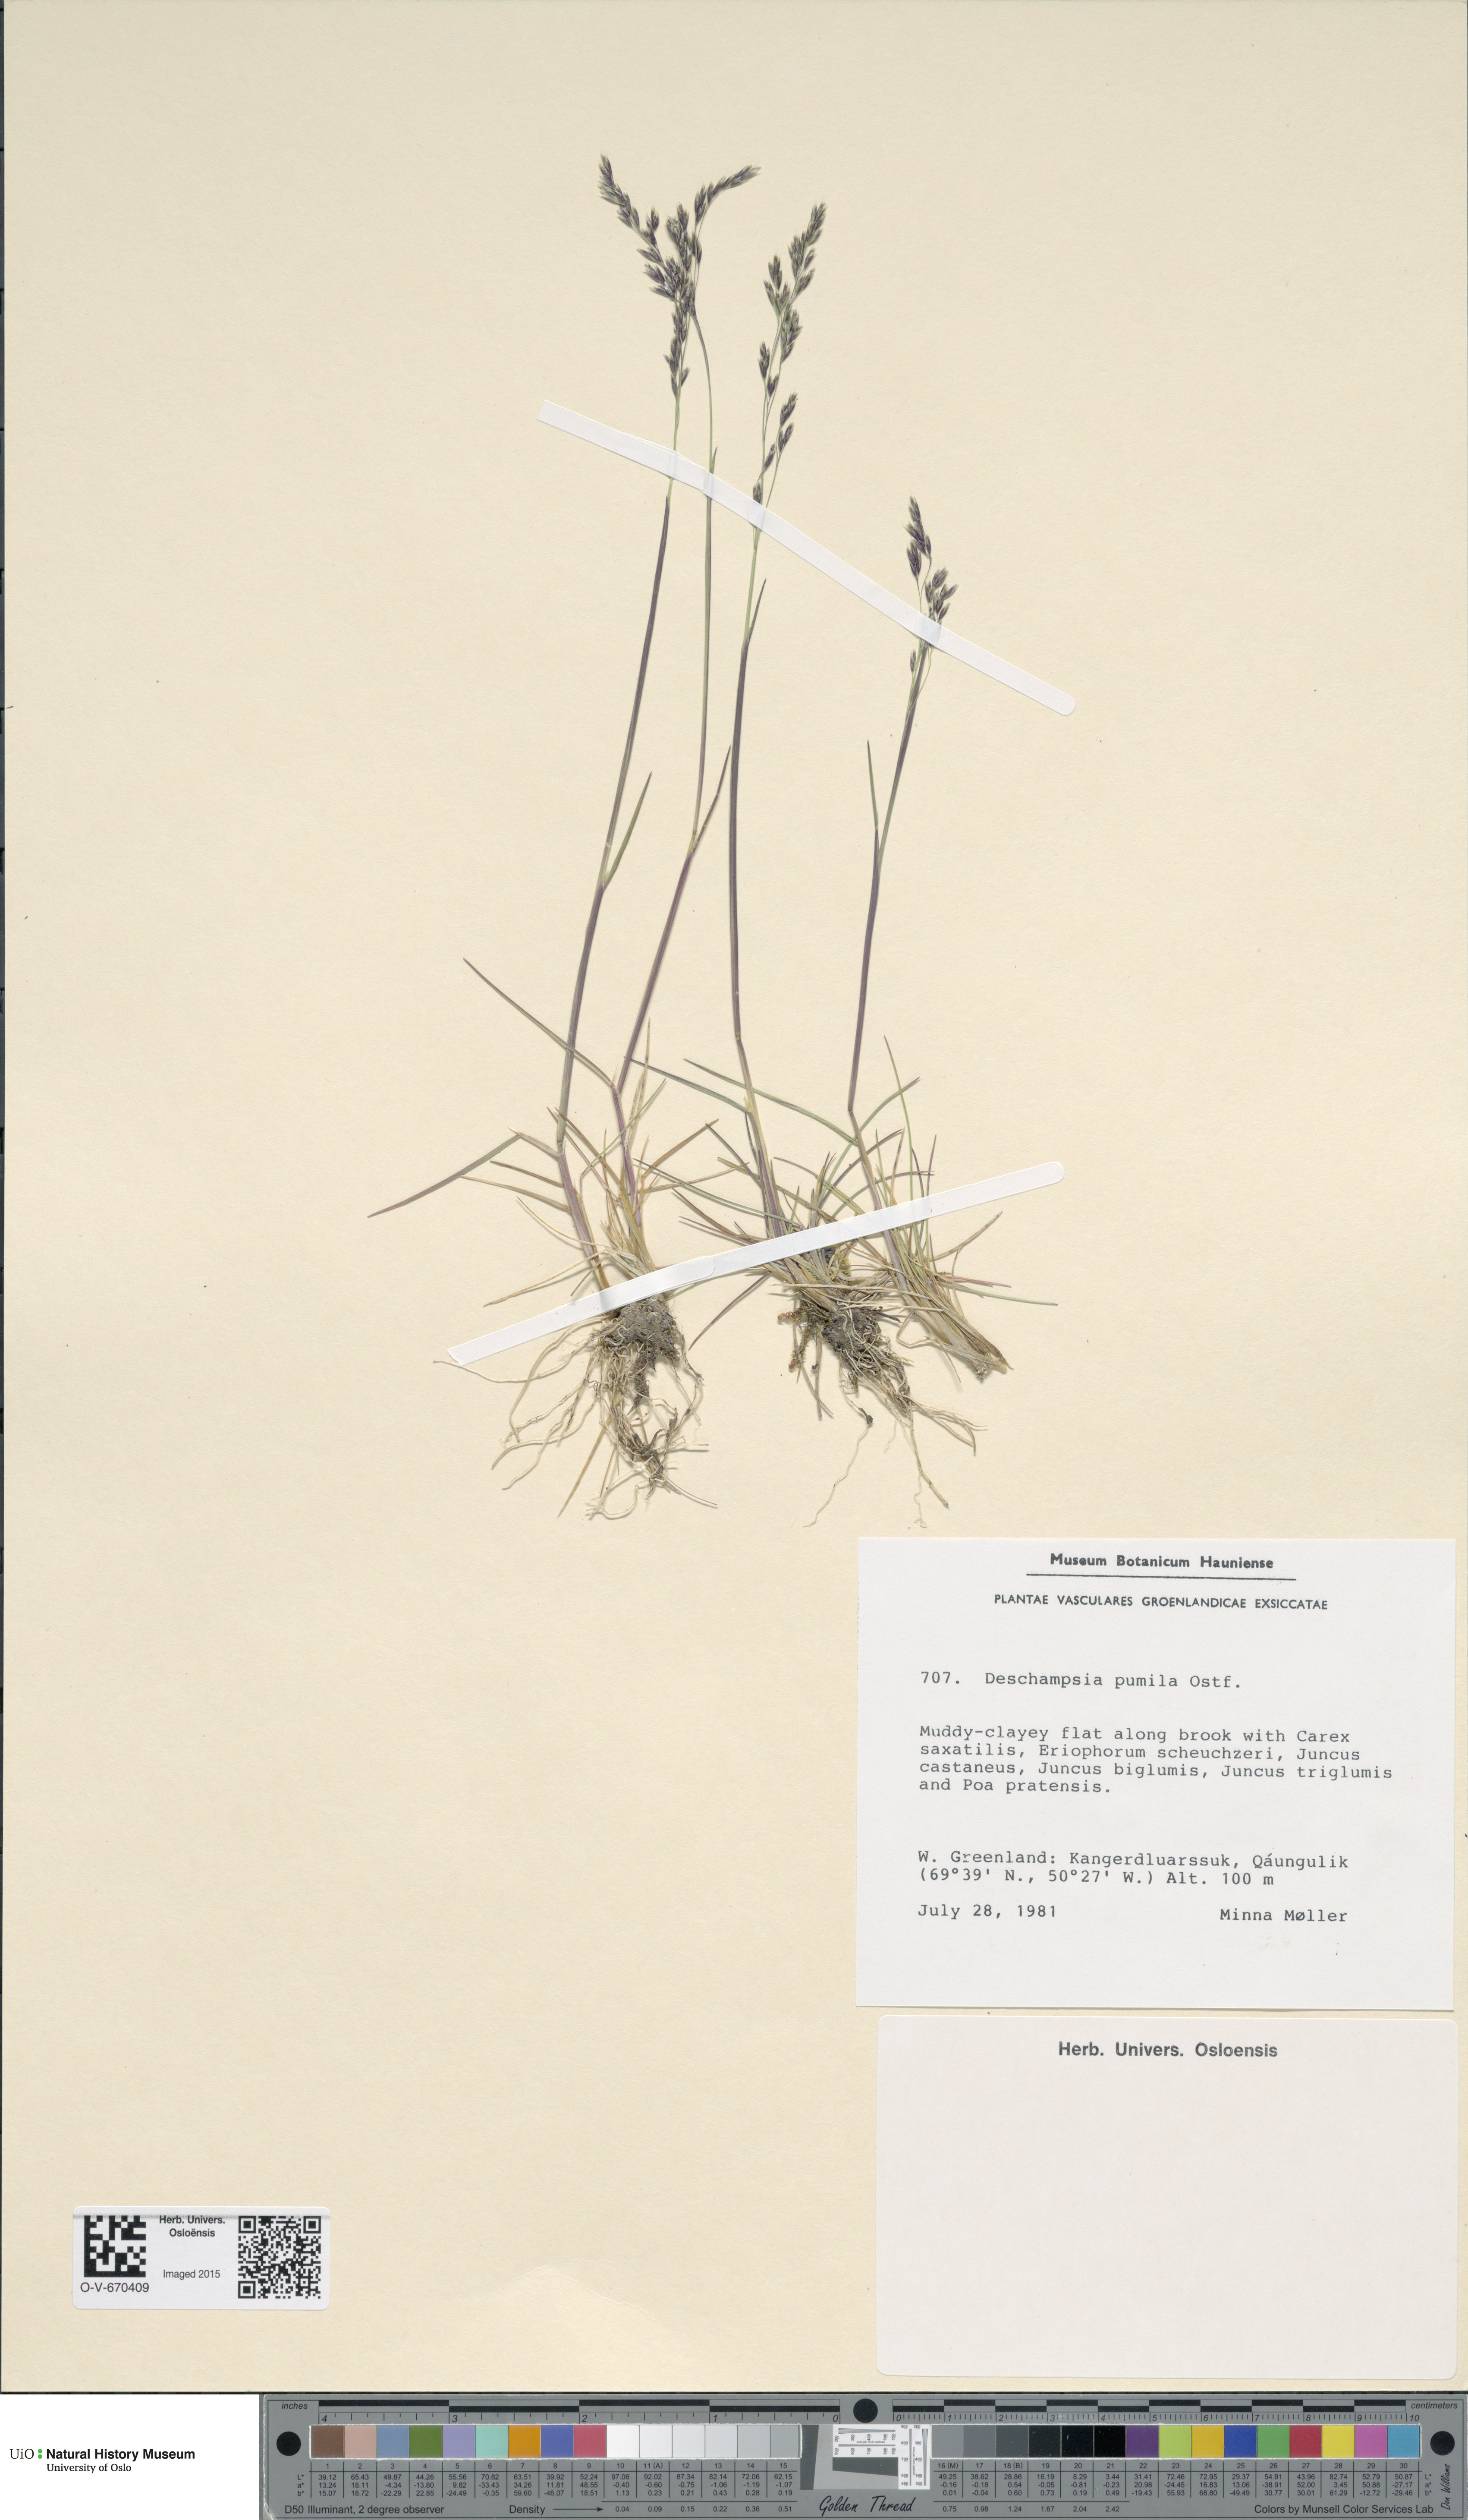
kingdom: Plantae
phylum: Tracheophyta
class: Liliopsida
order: Poales
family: Poaceae
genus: Deschampsia
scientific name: Deschampsia cespitosa
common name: Tufted hair-grass
